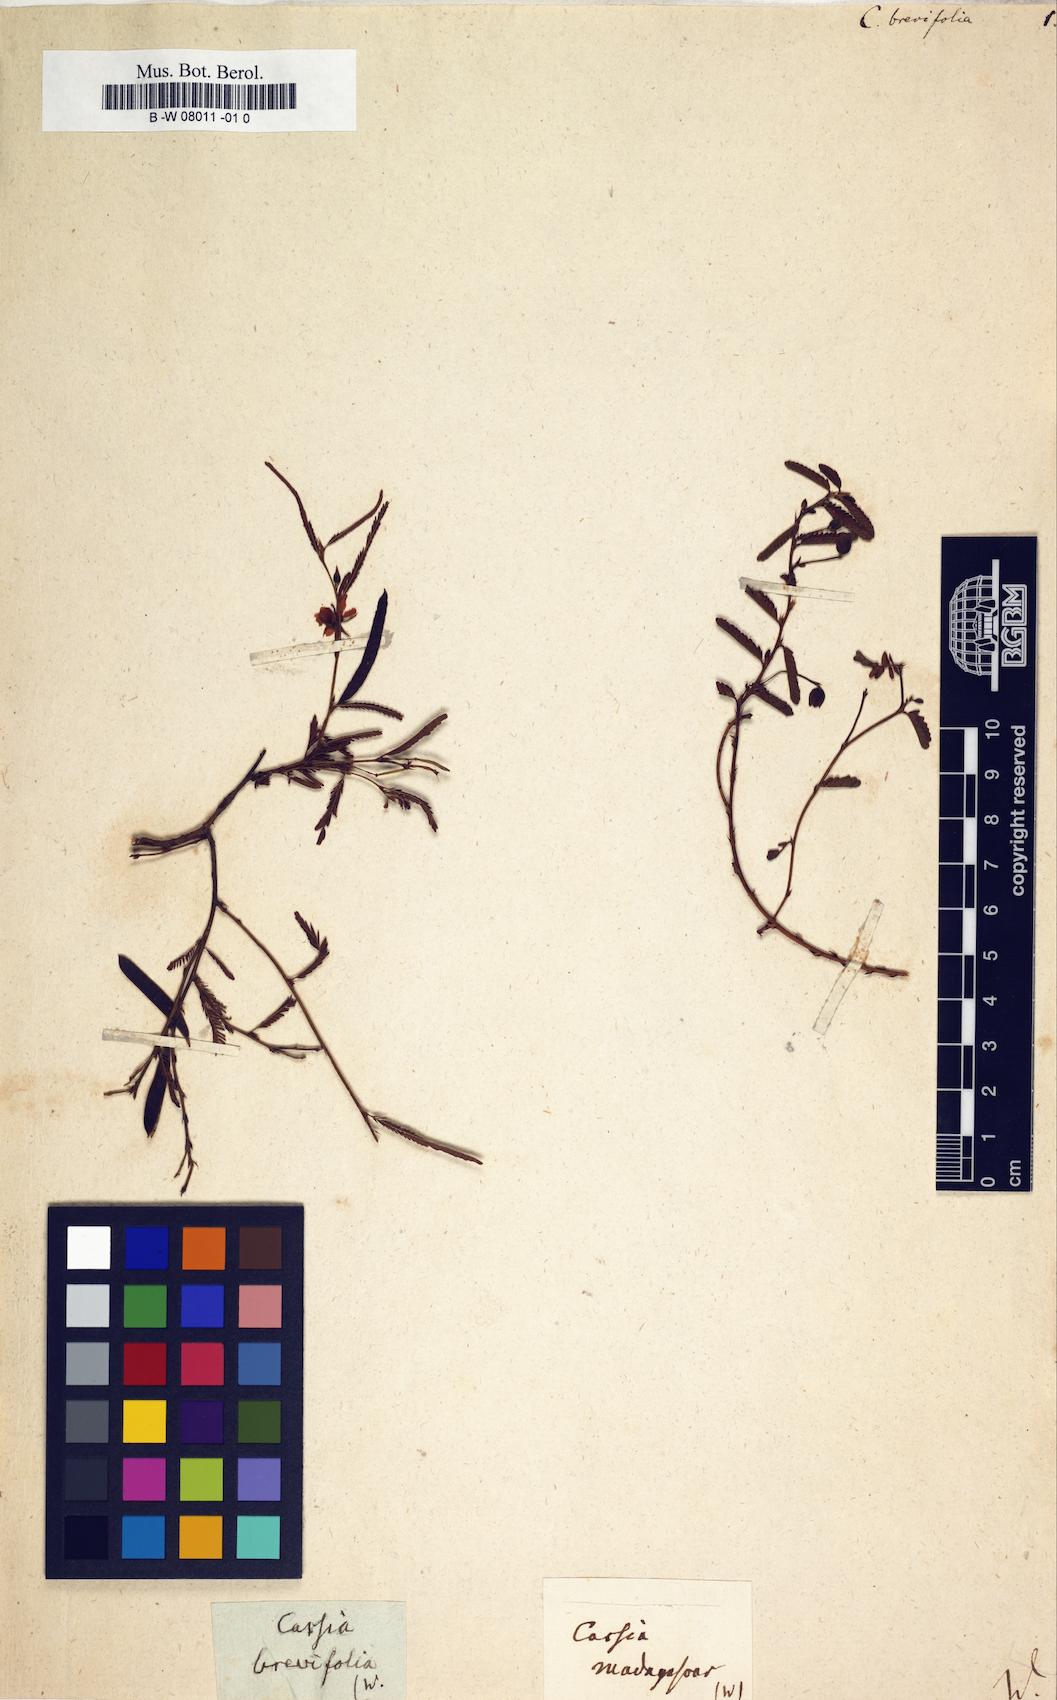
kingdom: Plantae
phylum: Tracheophyta
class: Magnoliopsida
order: Fabales
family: Fabaceae
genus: Chamaecrista
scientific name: Chamaecrista brevifolia
